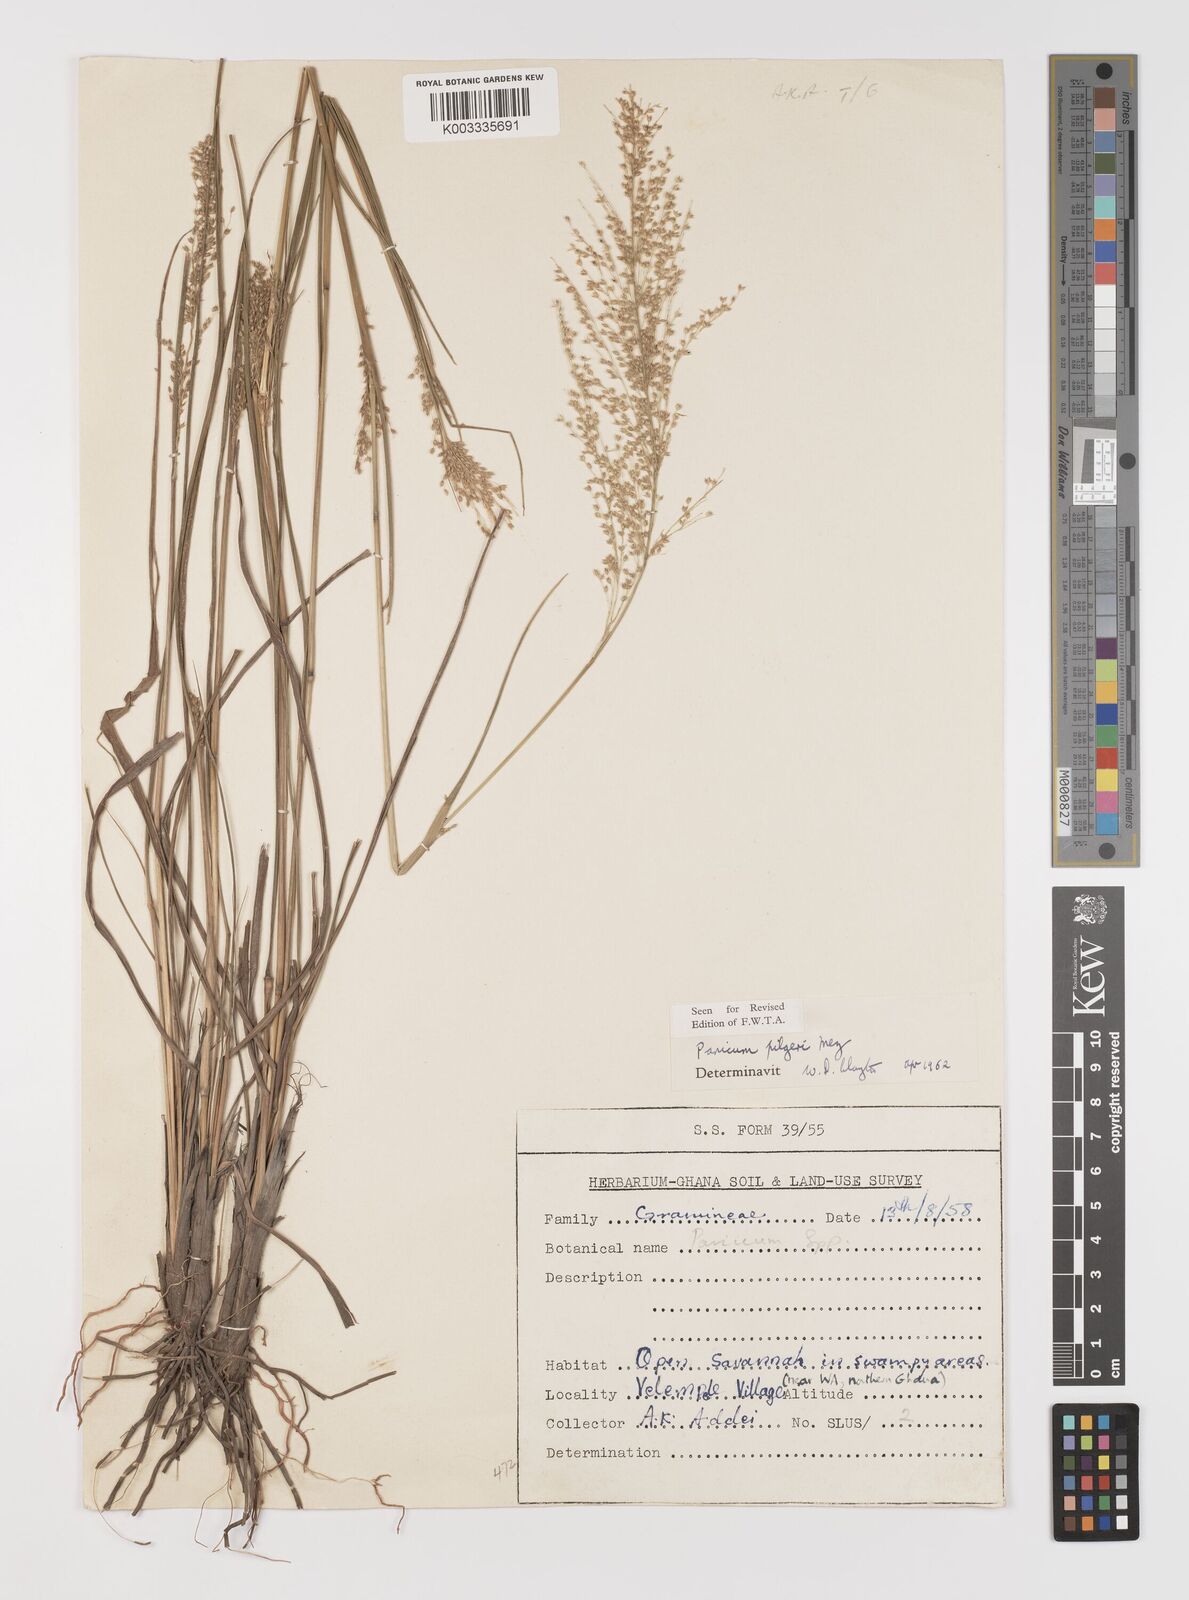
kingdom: Plantae
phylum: Tracheophyta
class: Liliopsida
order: Poales
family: Poaceae
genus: Panicum
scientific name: Panicum
